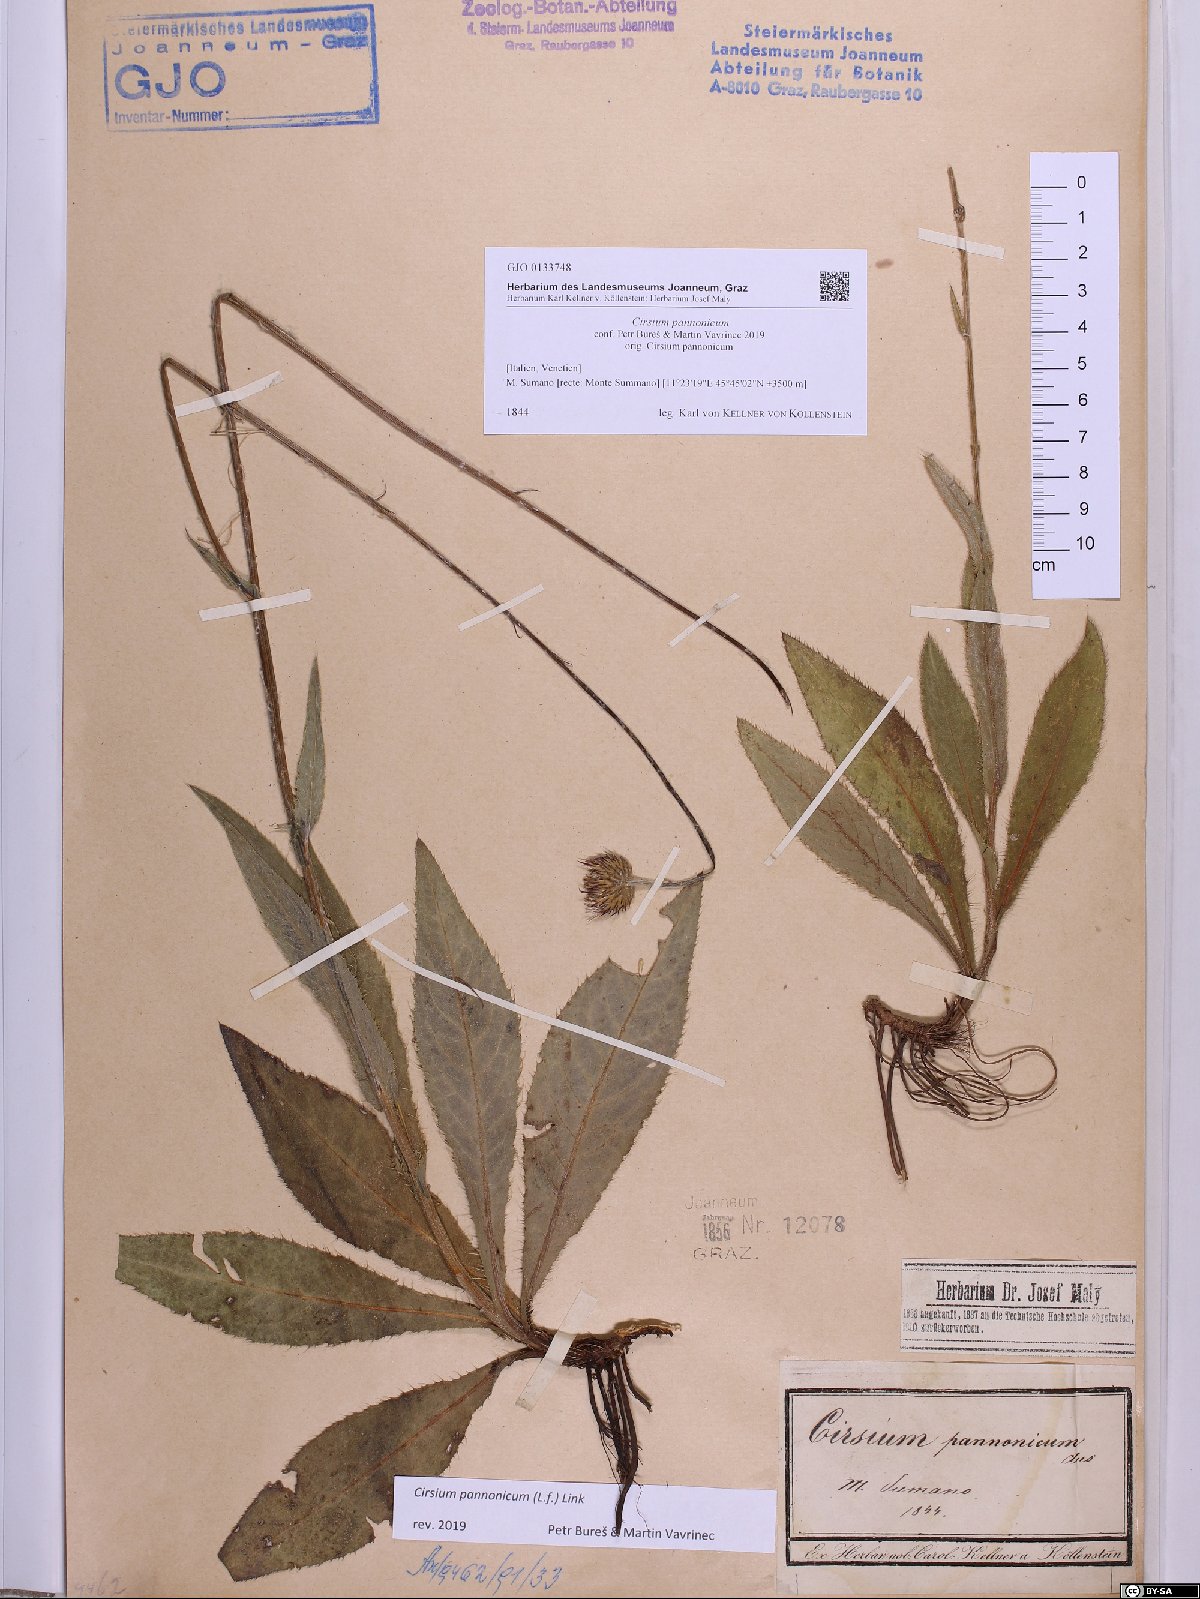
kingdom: Plantae
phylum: Tracheophyta
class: Magnoliopsida
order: Asterales
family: Asteraceae
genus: Cirsium
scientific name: Cirsium pannonicum
